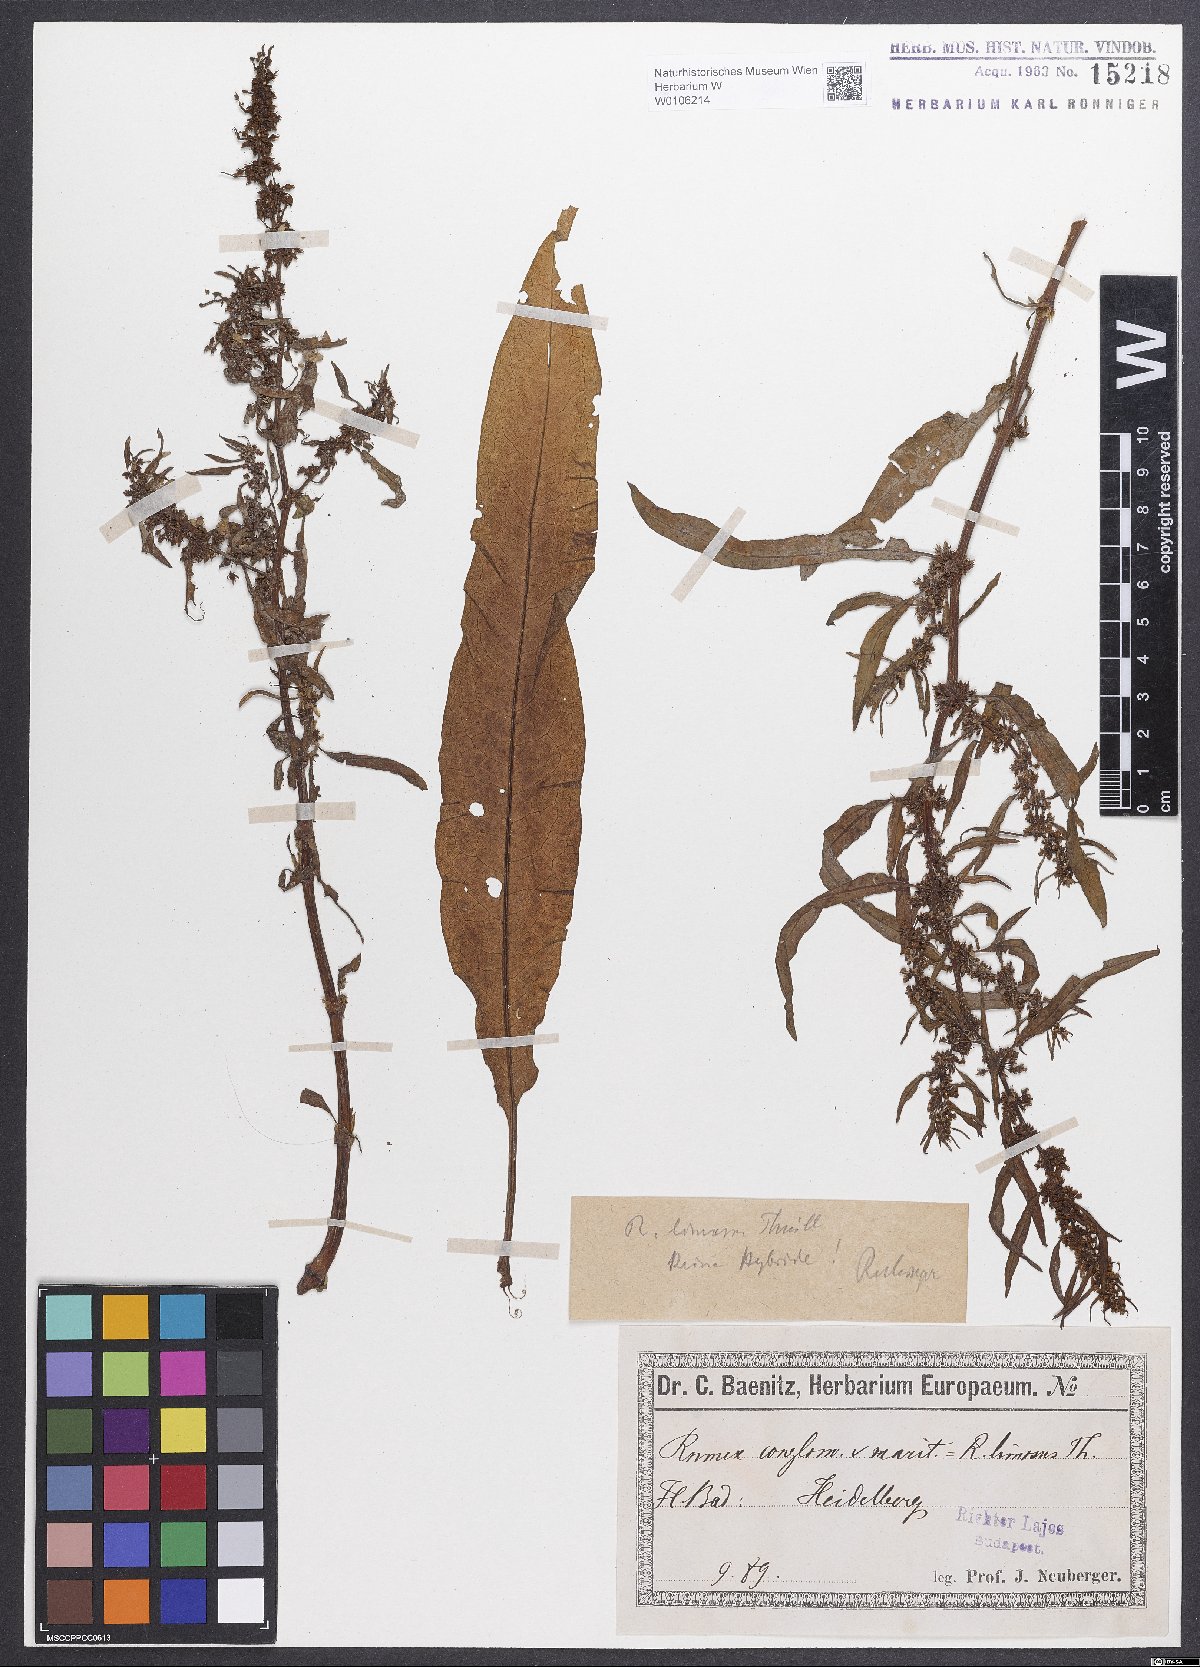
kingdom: Plantae
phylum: Tracheophyta
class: Magnoliopsida
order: Caryophyllales
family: Polygonaceae
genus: Rumex
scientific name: Rumex
